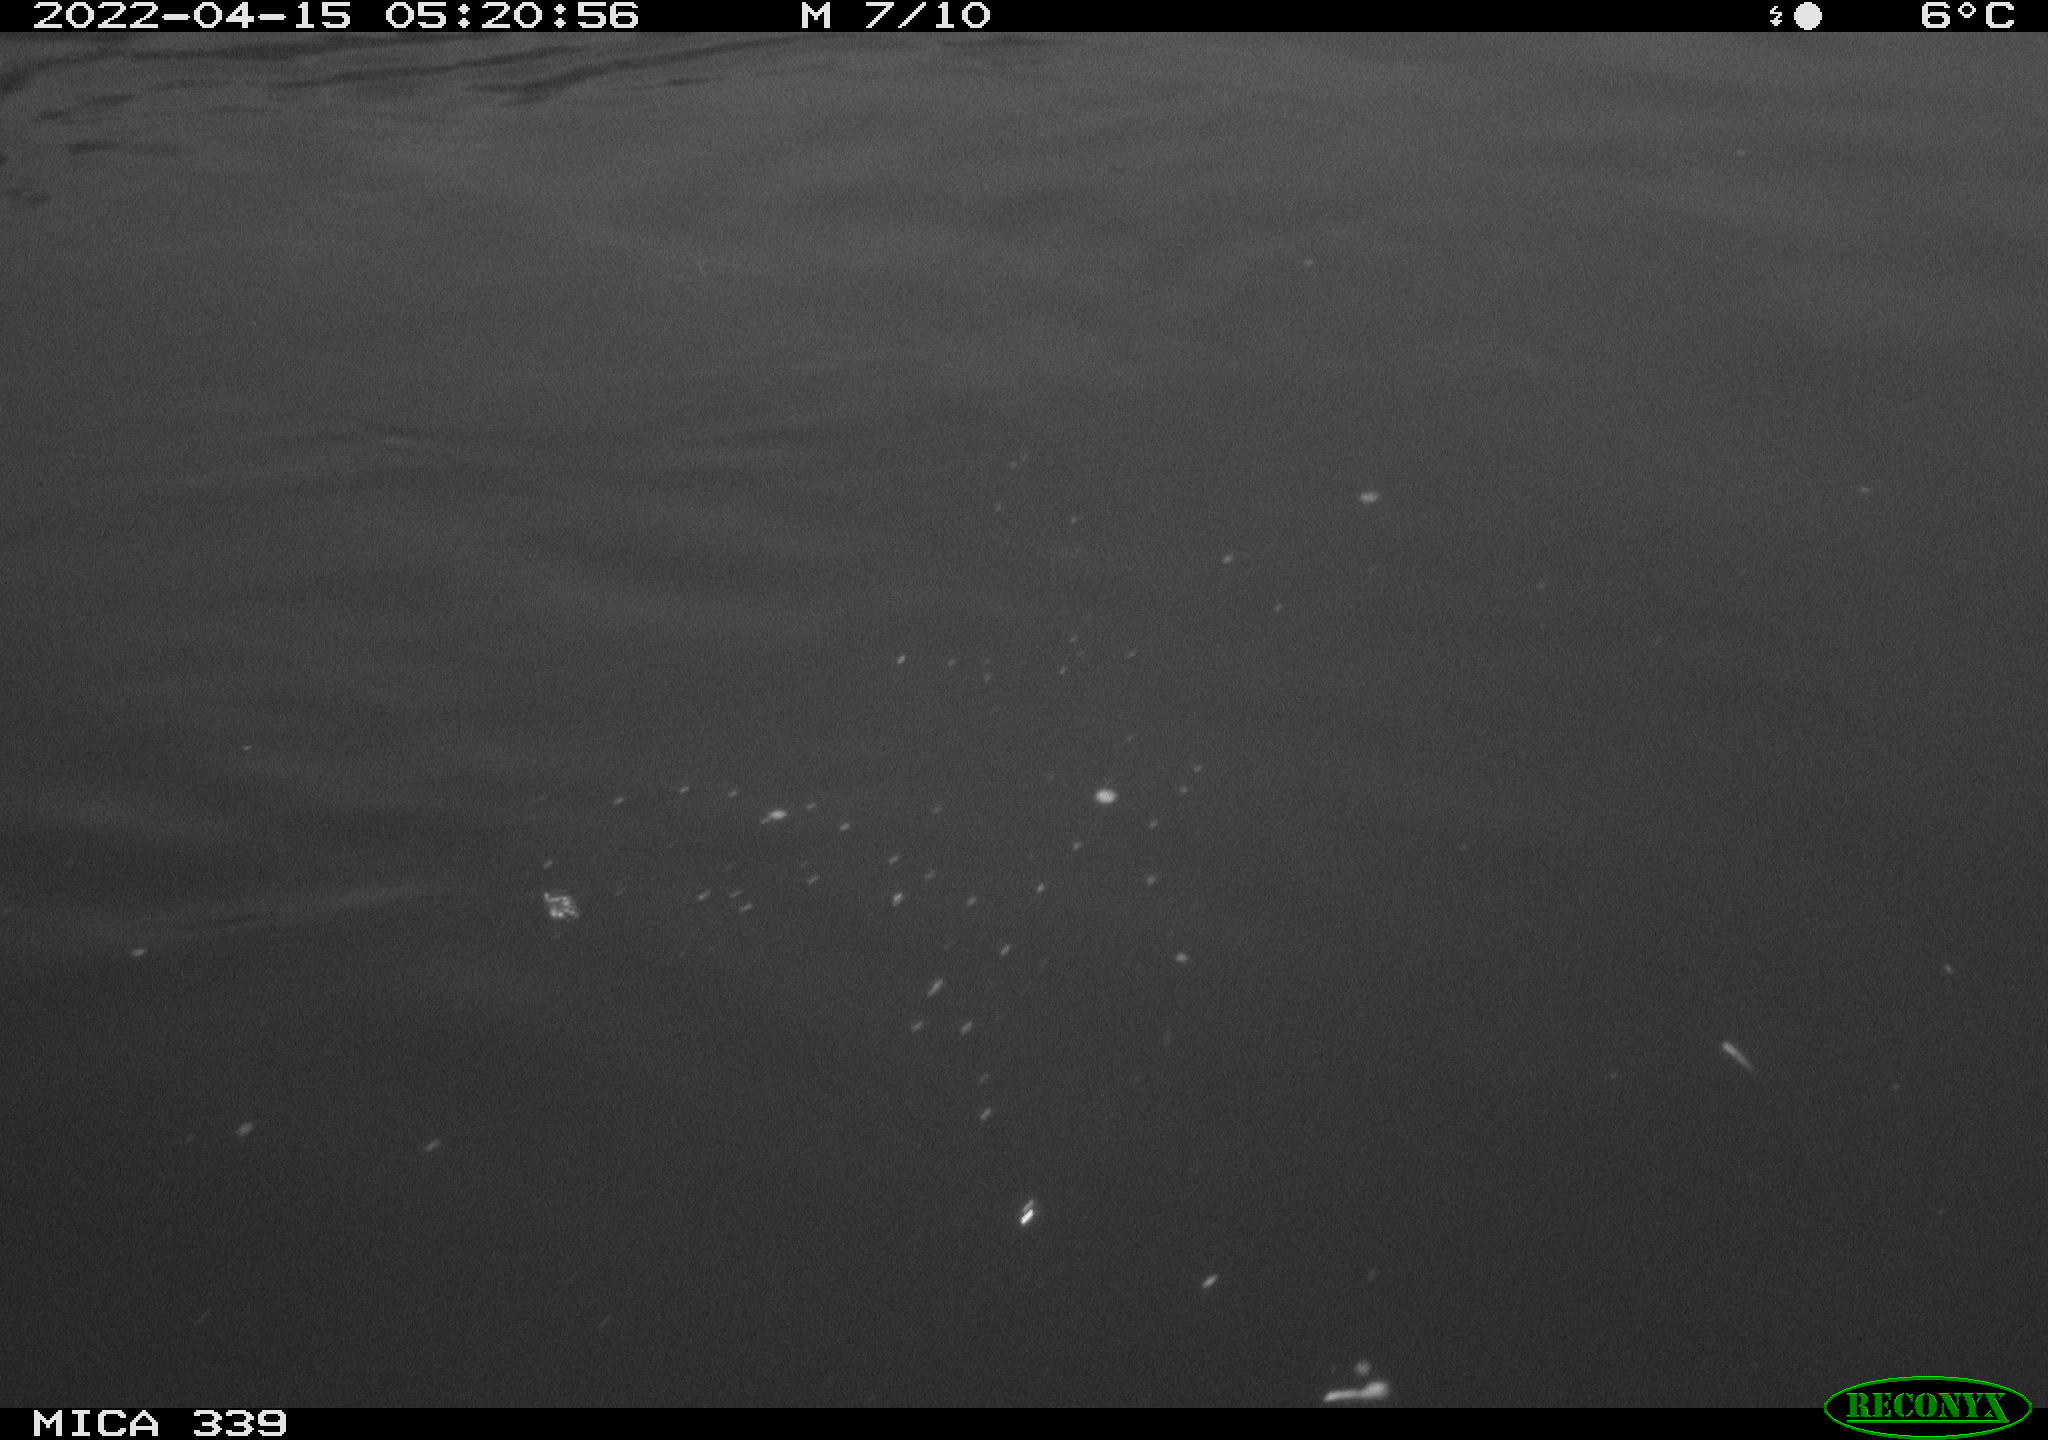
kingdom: Animalia
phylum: Chordata
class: Aves
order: Anseriformes
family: Anatidae
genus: Anas
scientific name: Anas platyrhynchos
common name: Mallard
